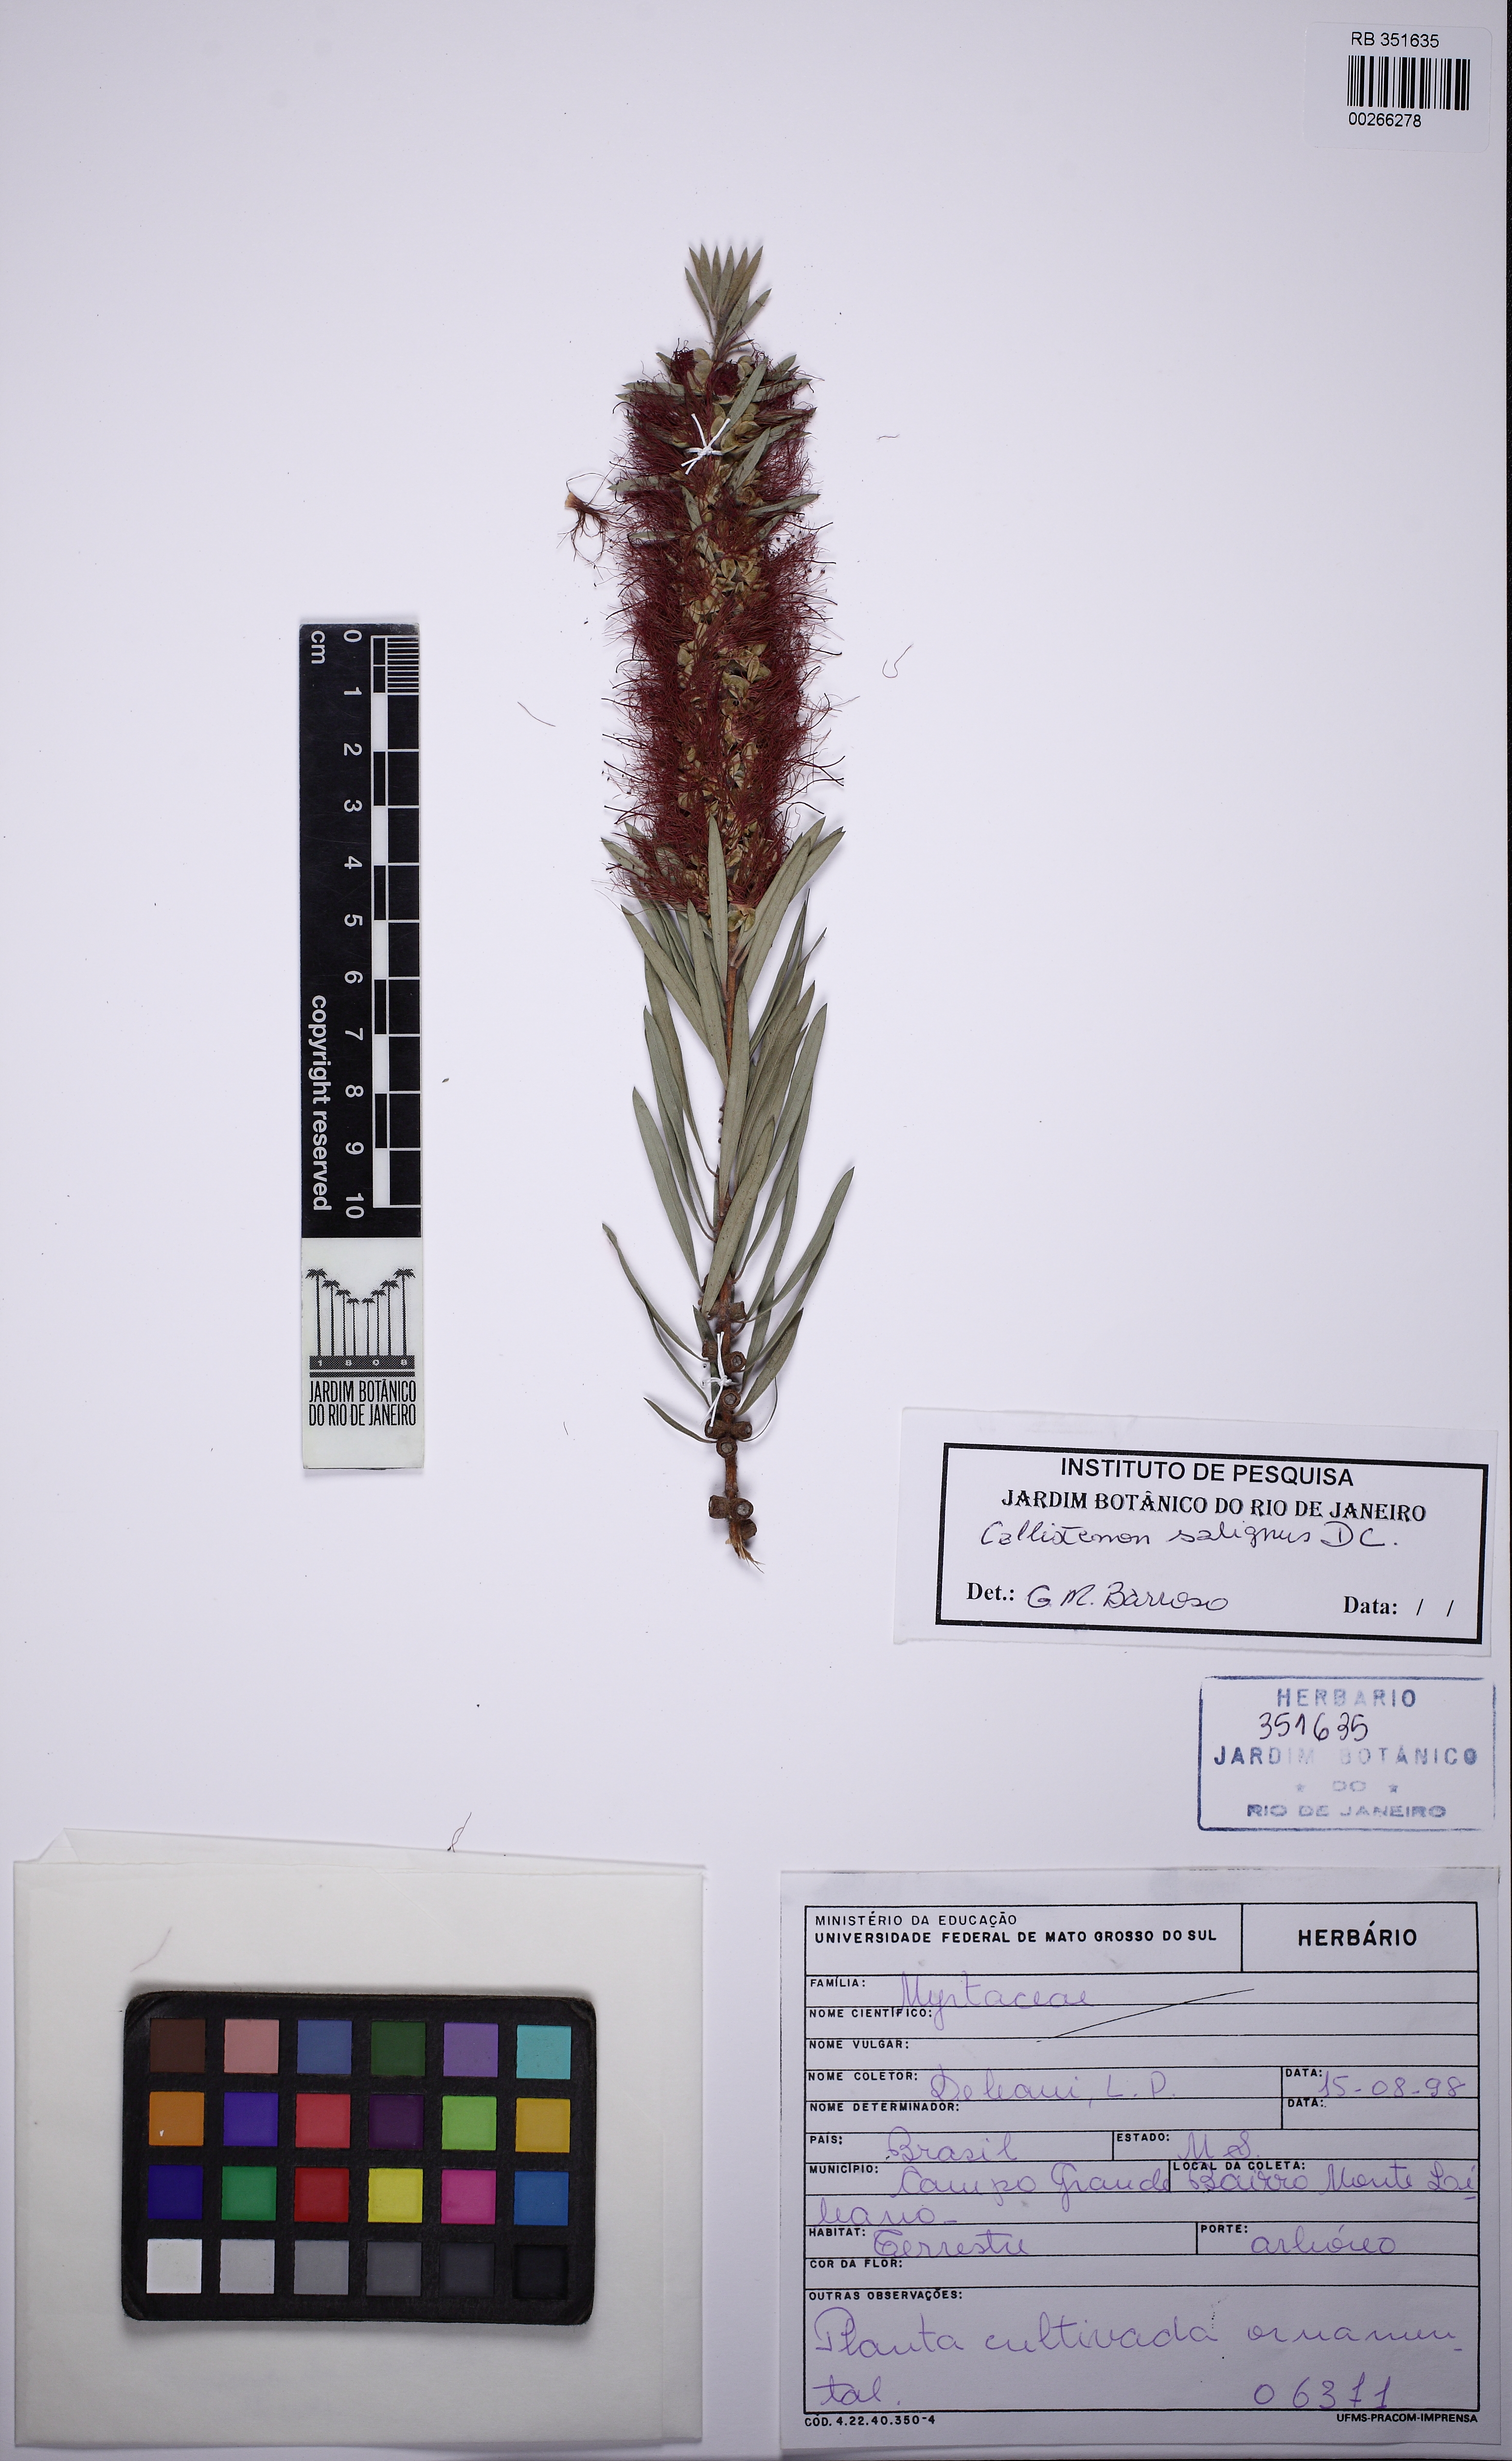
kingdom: Plantae
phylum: Tracheophyta
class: Magnoliopsida
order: Myrtales
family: Myrtaceae
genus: Callistemon
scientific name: Callistemon salignus
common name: White bottlebrush
